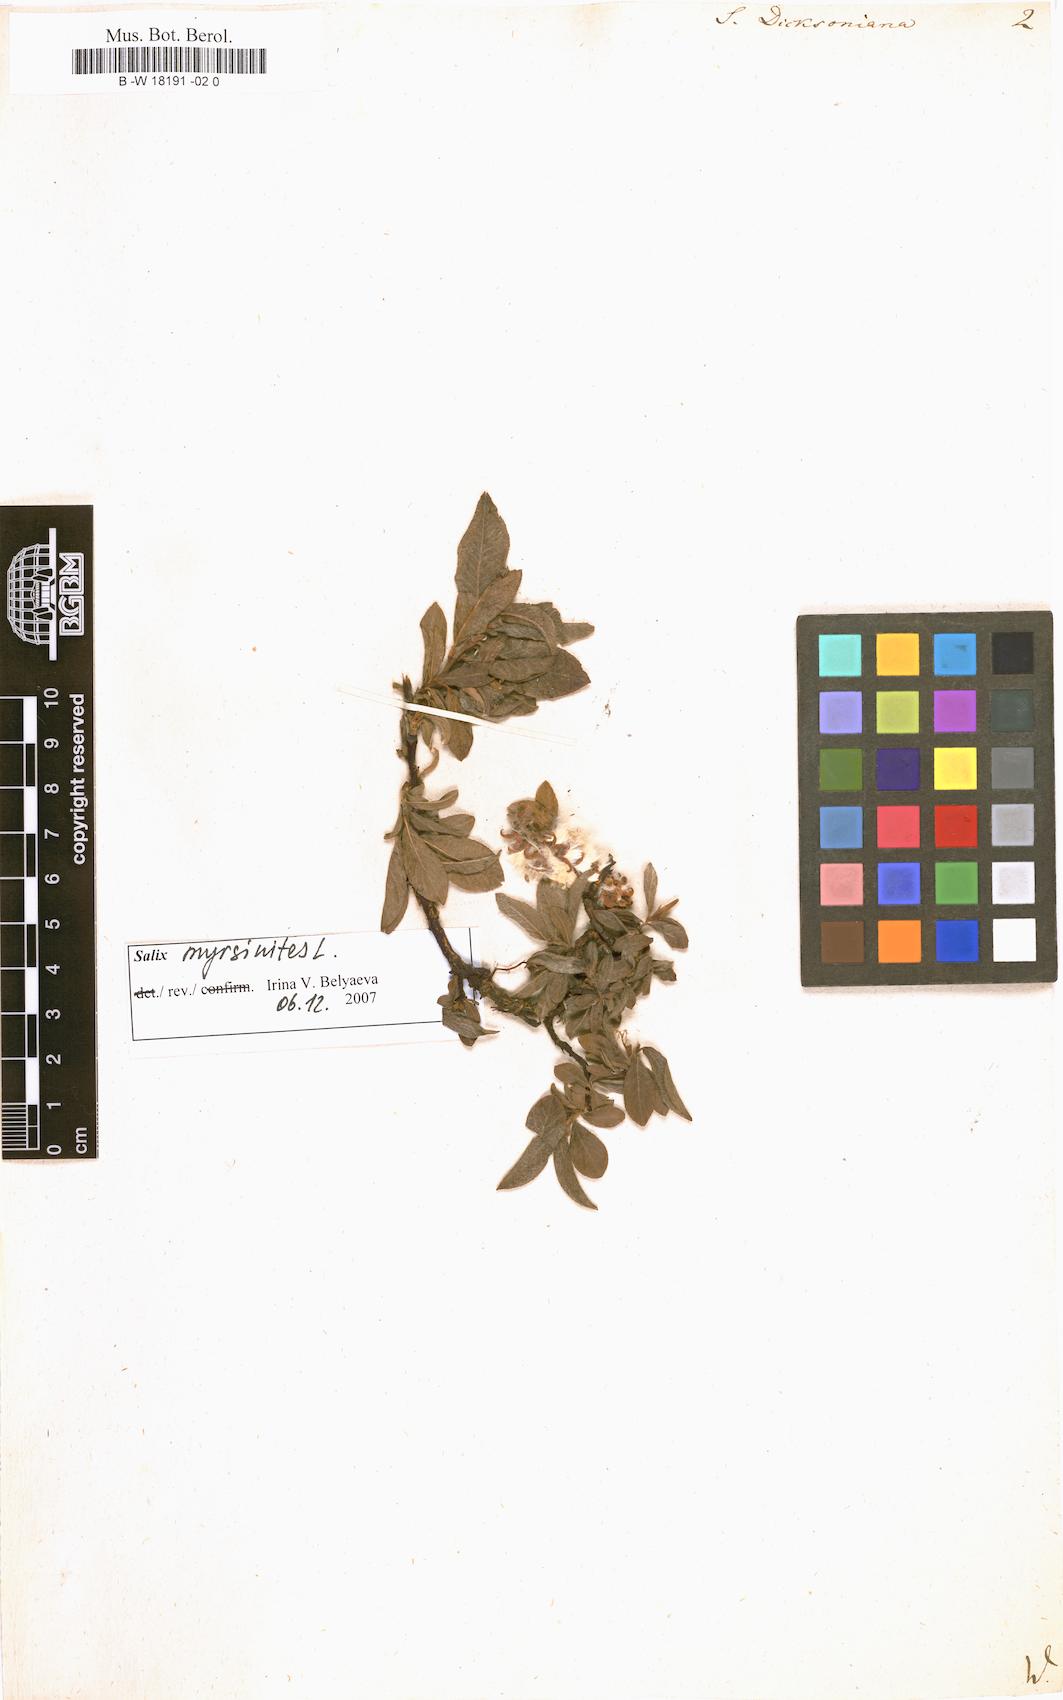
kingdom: Plantae
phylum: Tracheophyta
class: Magnoliopsida
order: Malpighiales
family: Salicaceae
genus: Salix
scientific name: Salix phylicifolia
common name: Tea-leaved willow
